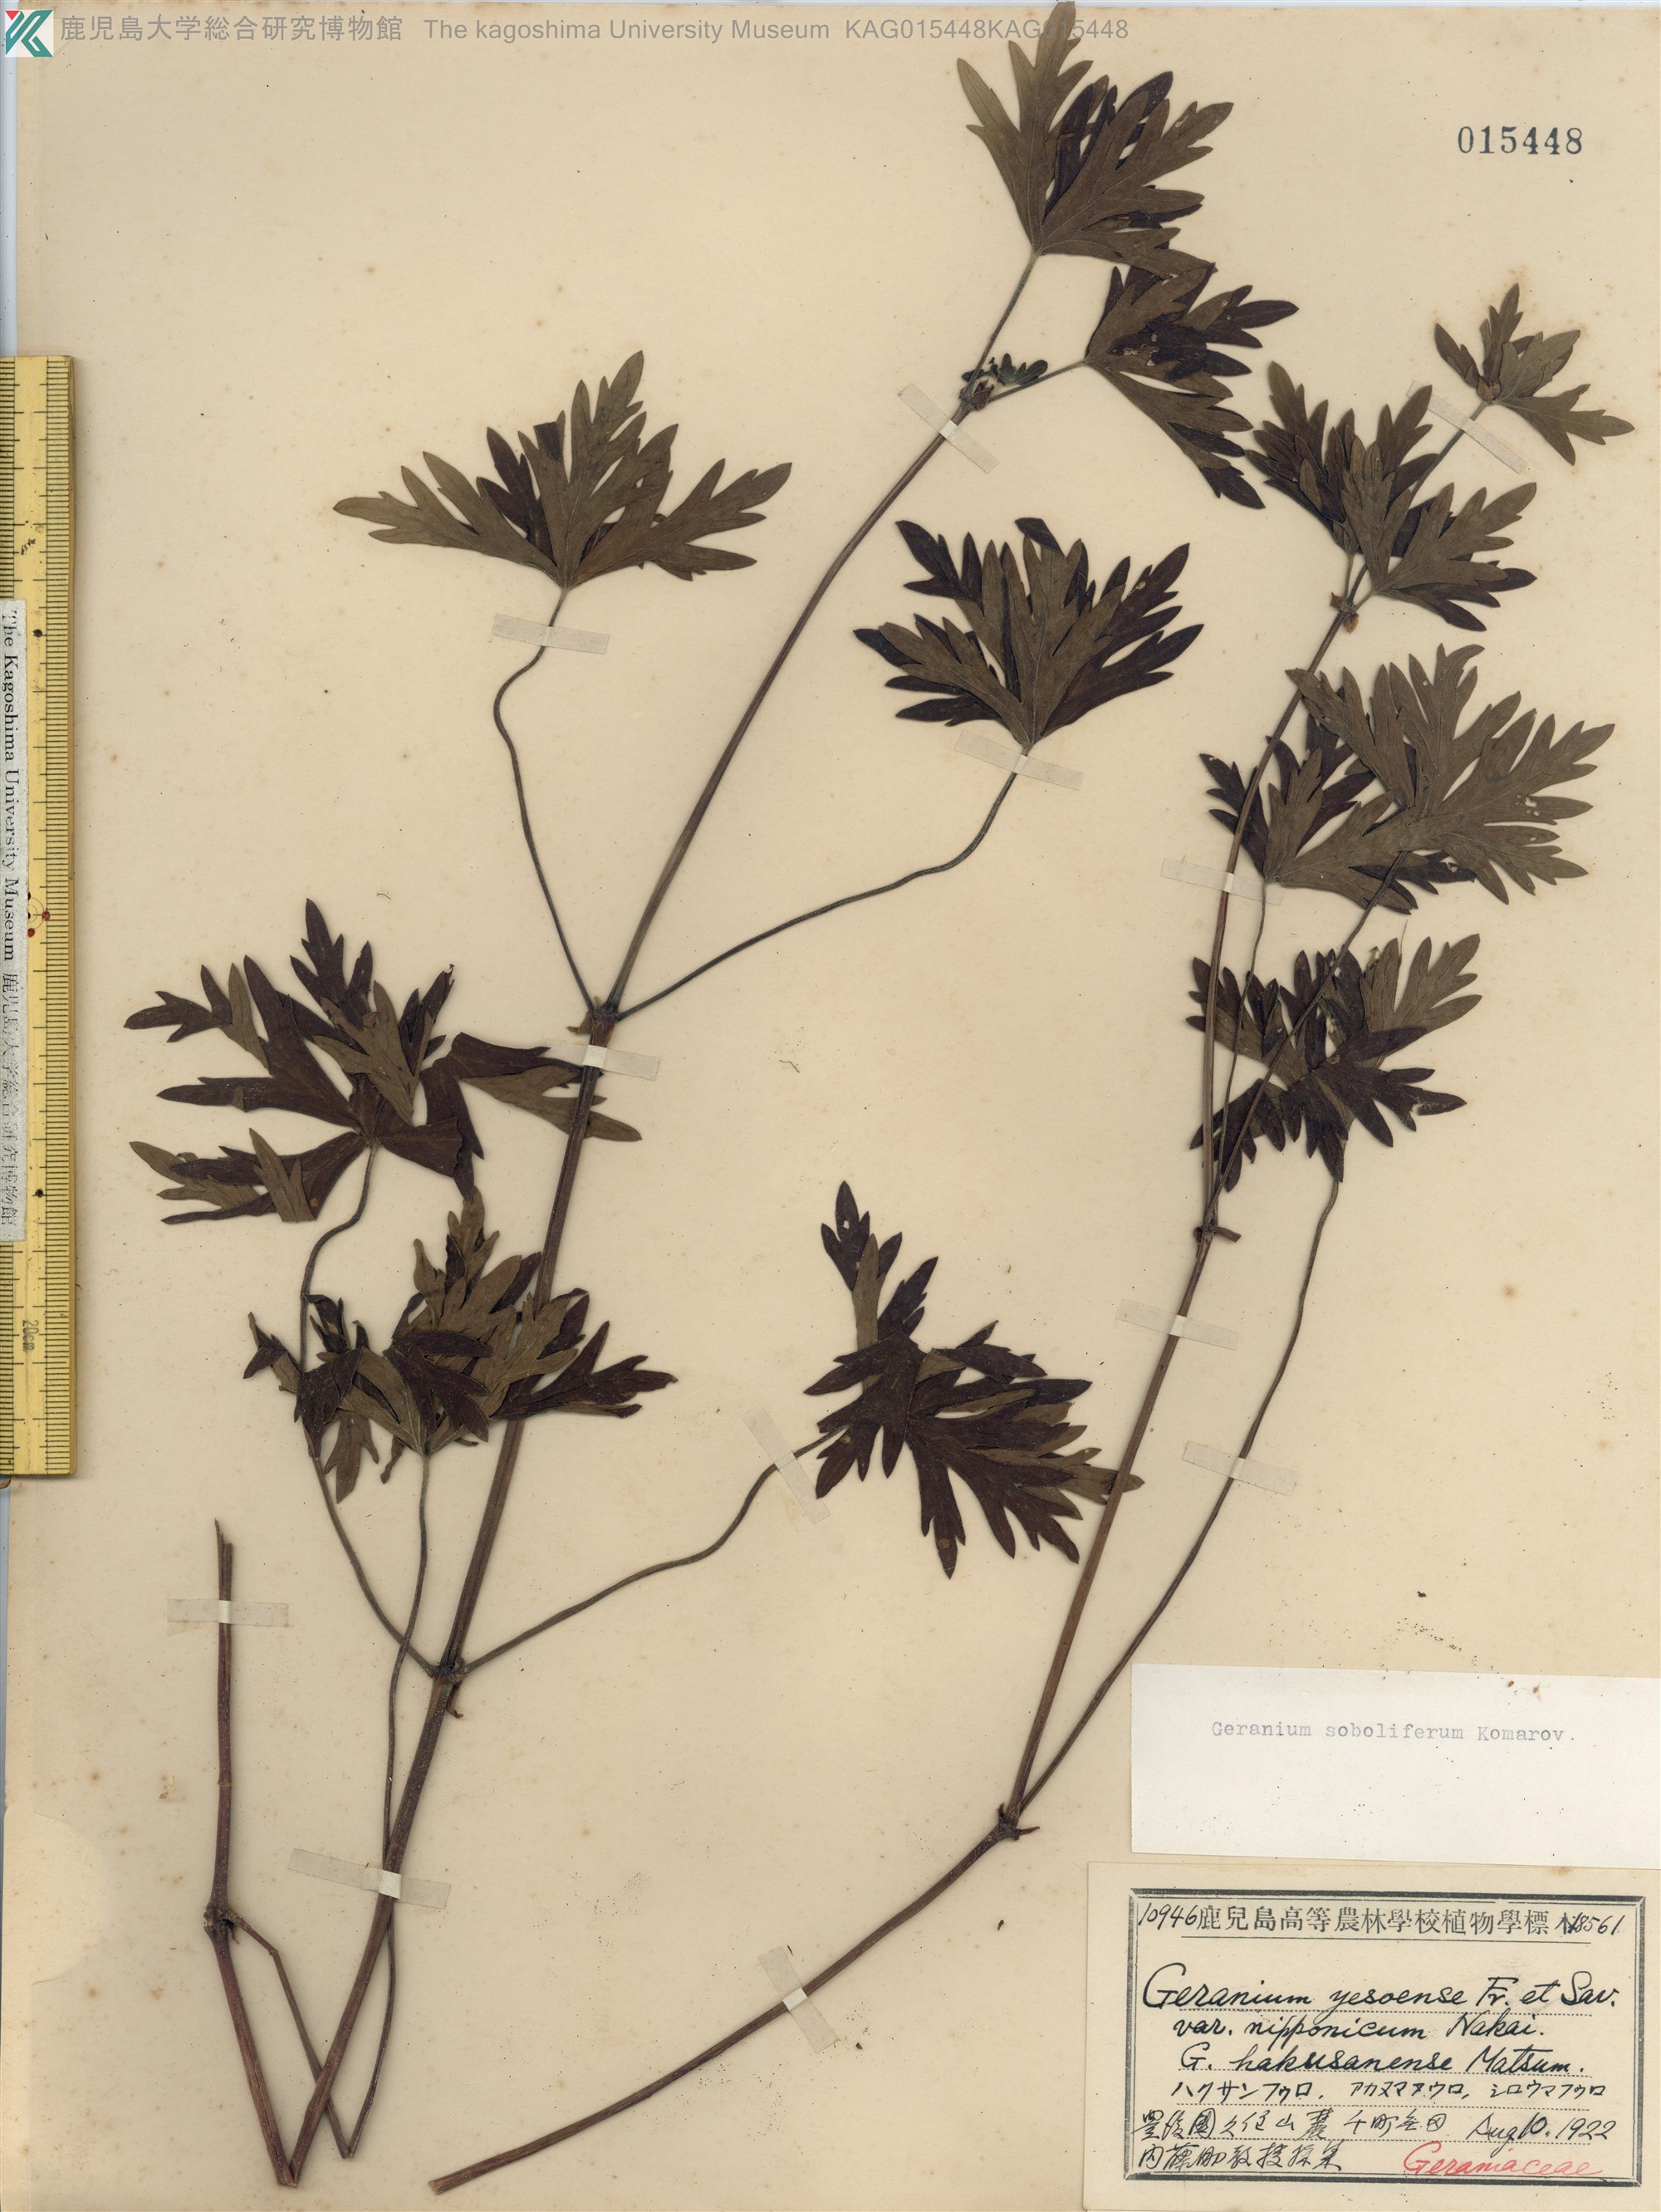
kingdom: Plantae
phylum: Tracheophyta
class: Magnoliopsida
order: Geraniales
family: Geraniaceae
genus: Geranium
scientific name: Geranium soboliferum
